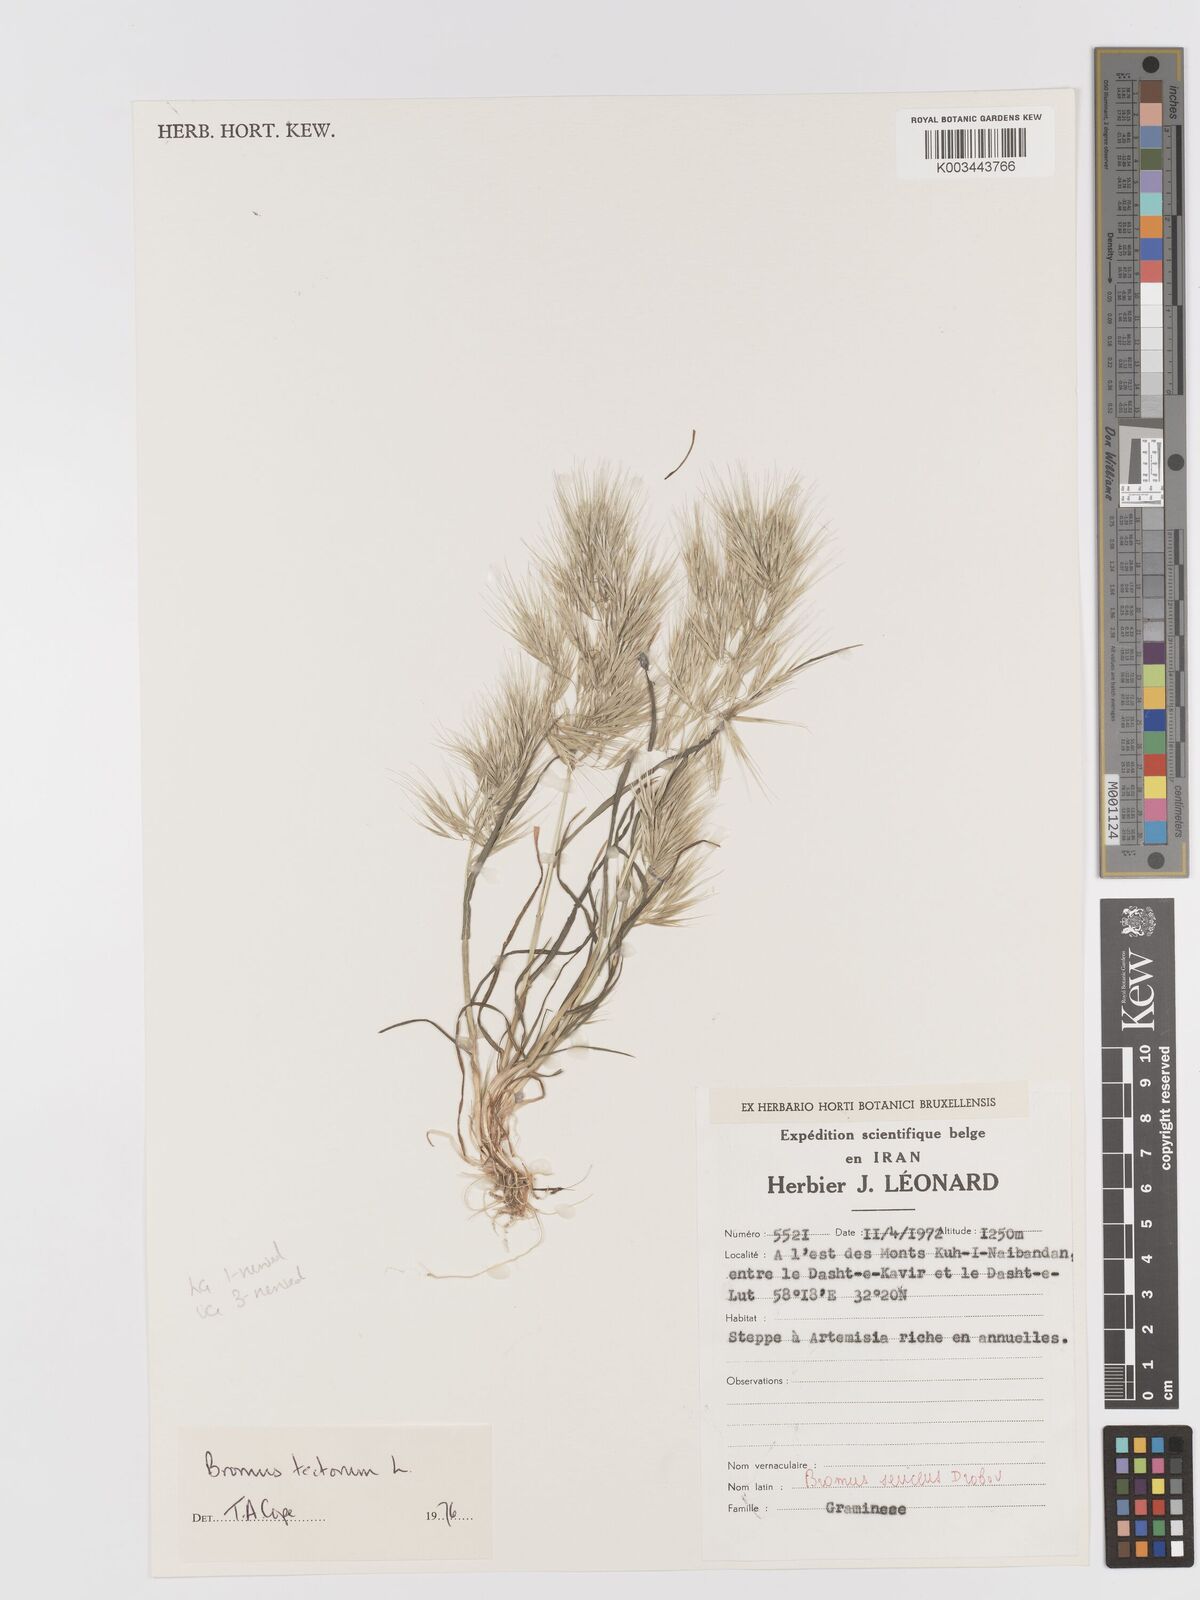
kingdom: Plantae
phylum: Tracheophyta
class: Liliopsida
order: Poales
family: Poaceae
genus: Bromus
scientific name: Bromus tectorum
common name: Cheatgrass
